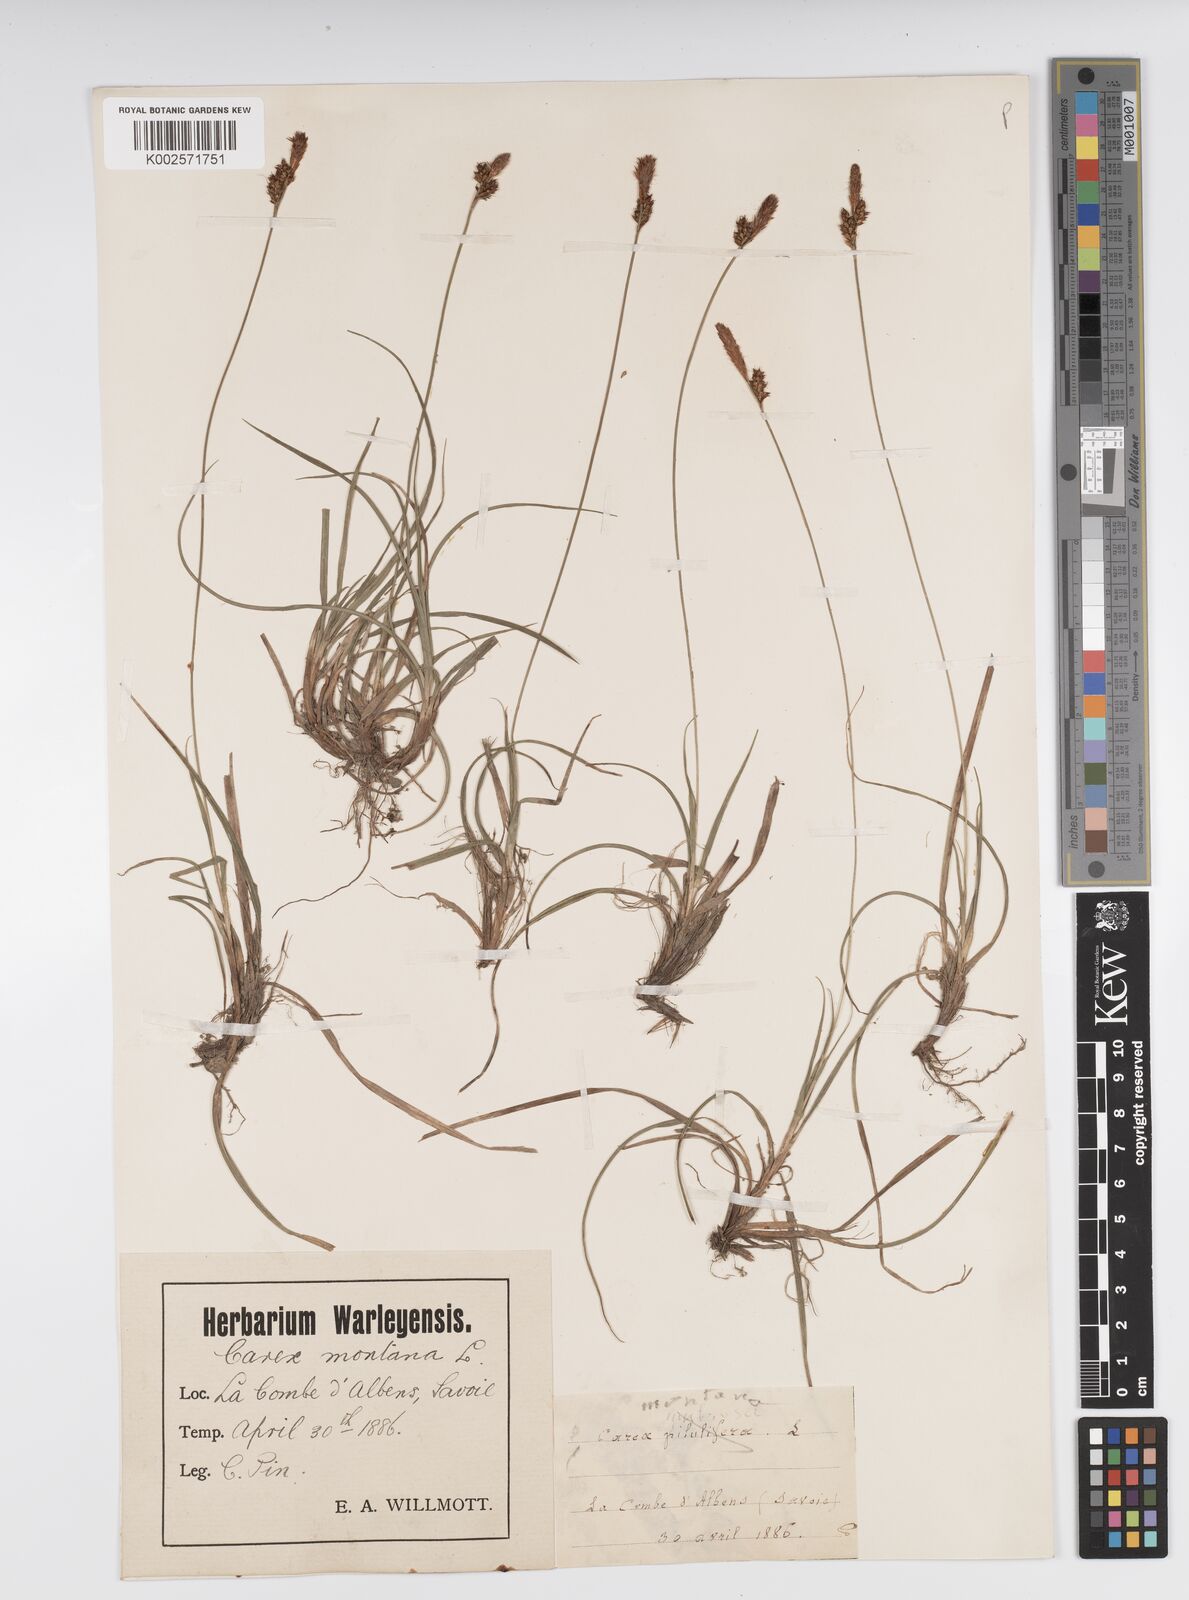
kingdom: Plantae
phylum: Tracheophyta
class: Liliopsida
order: Poales
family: Cyperaceae
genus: Carex
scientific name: Carex caryophyllea
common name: Spring sedge
